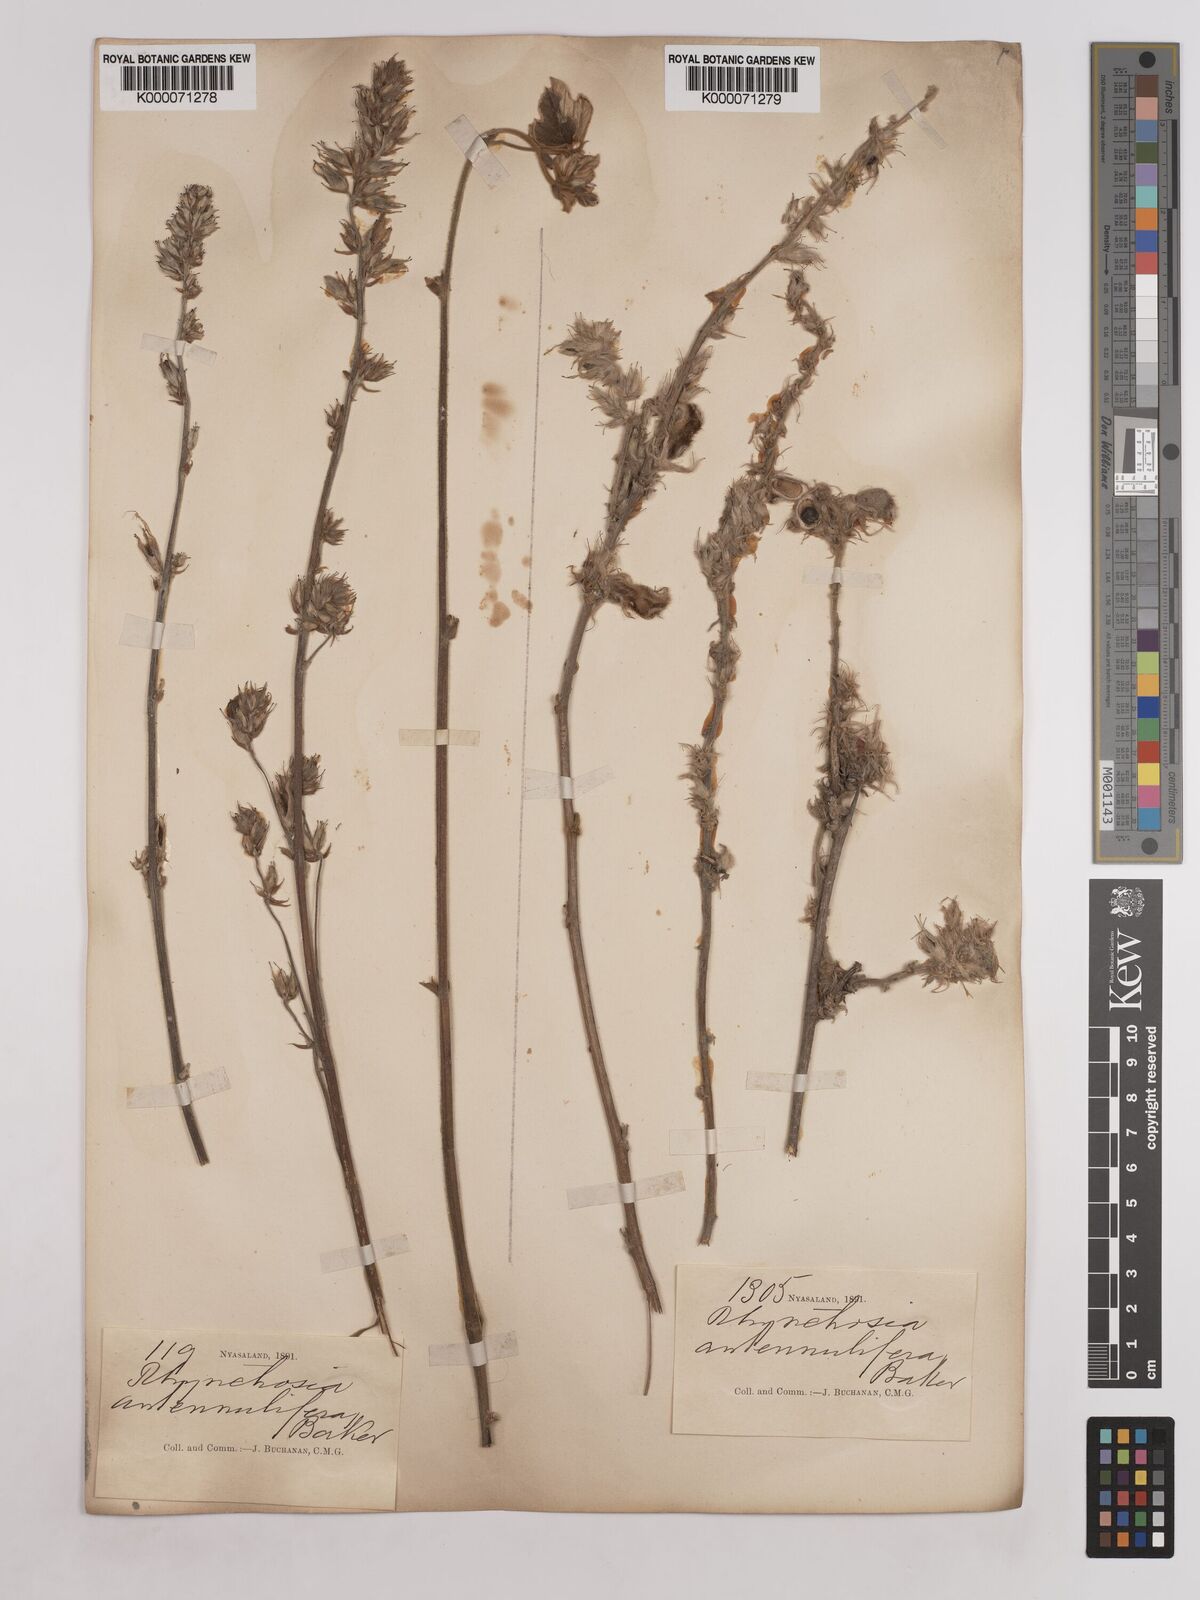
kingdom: Plantae
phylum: Tracheophyta
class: Magnoliopsida
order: Fabales
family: Fabaceae
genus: Eminia
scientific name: Eminia antennulifera
